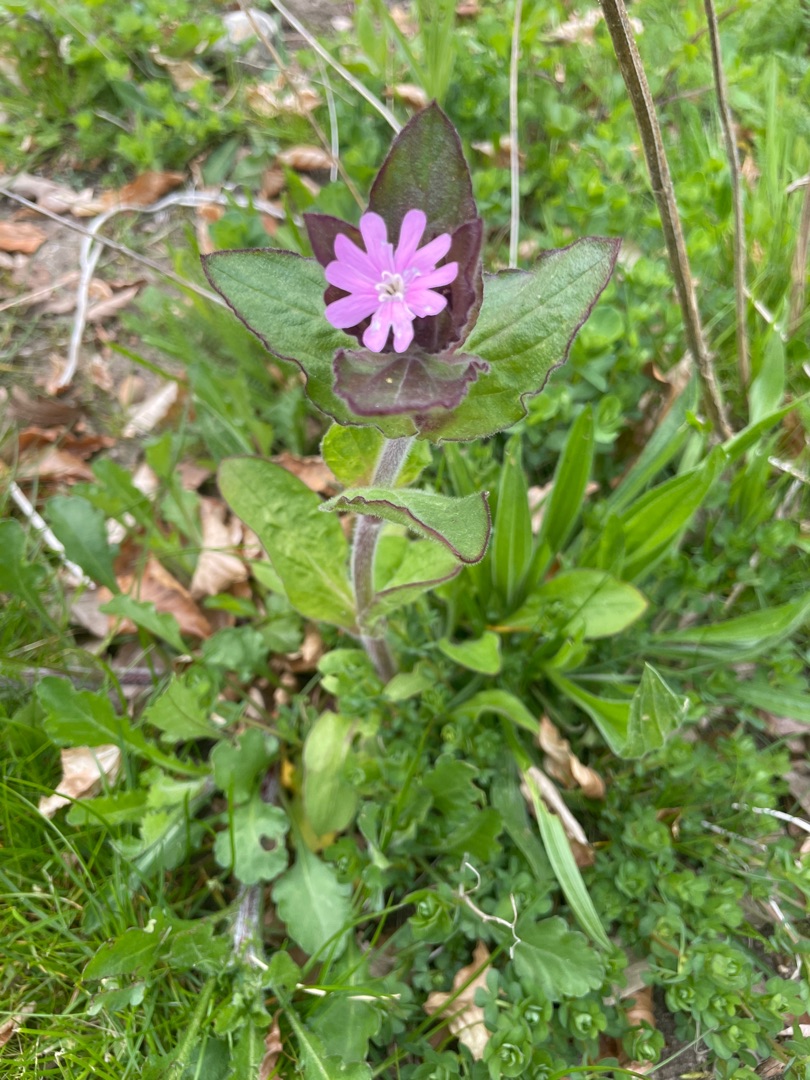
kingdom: Plantae
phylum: Tracheophyta
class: Magnoliopsida
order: Caryophyllales
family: Caryophyllaceae
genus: Silene
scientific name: Silene dioica
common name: Dagpragtstjerne
